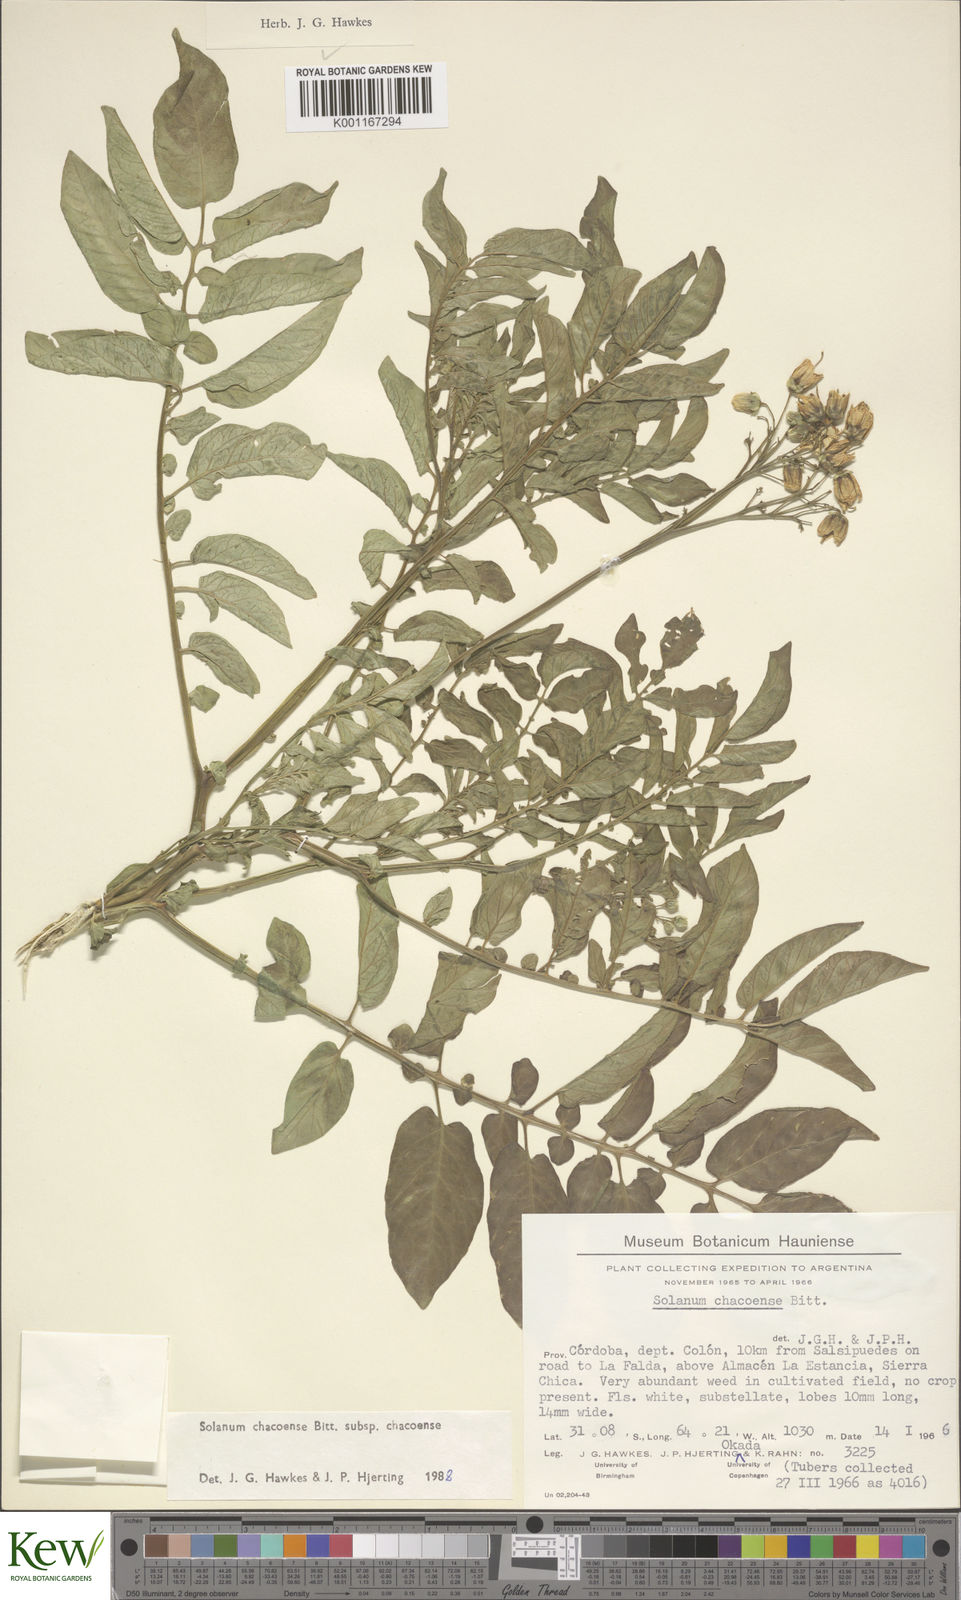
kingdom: Plantae
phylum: Tracheophyta
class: Magnoliopsida
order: Solanales
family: Solanaceae
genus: Solanum
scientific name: Solanum chacoense
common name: Chaco potato
